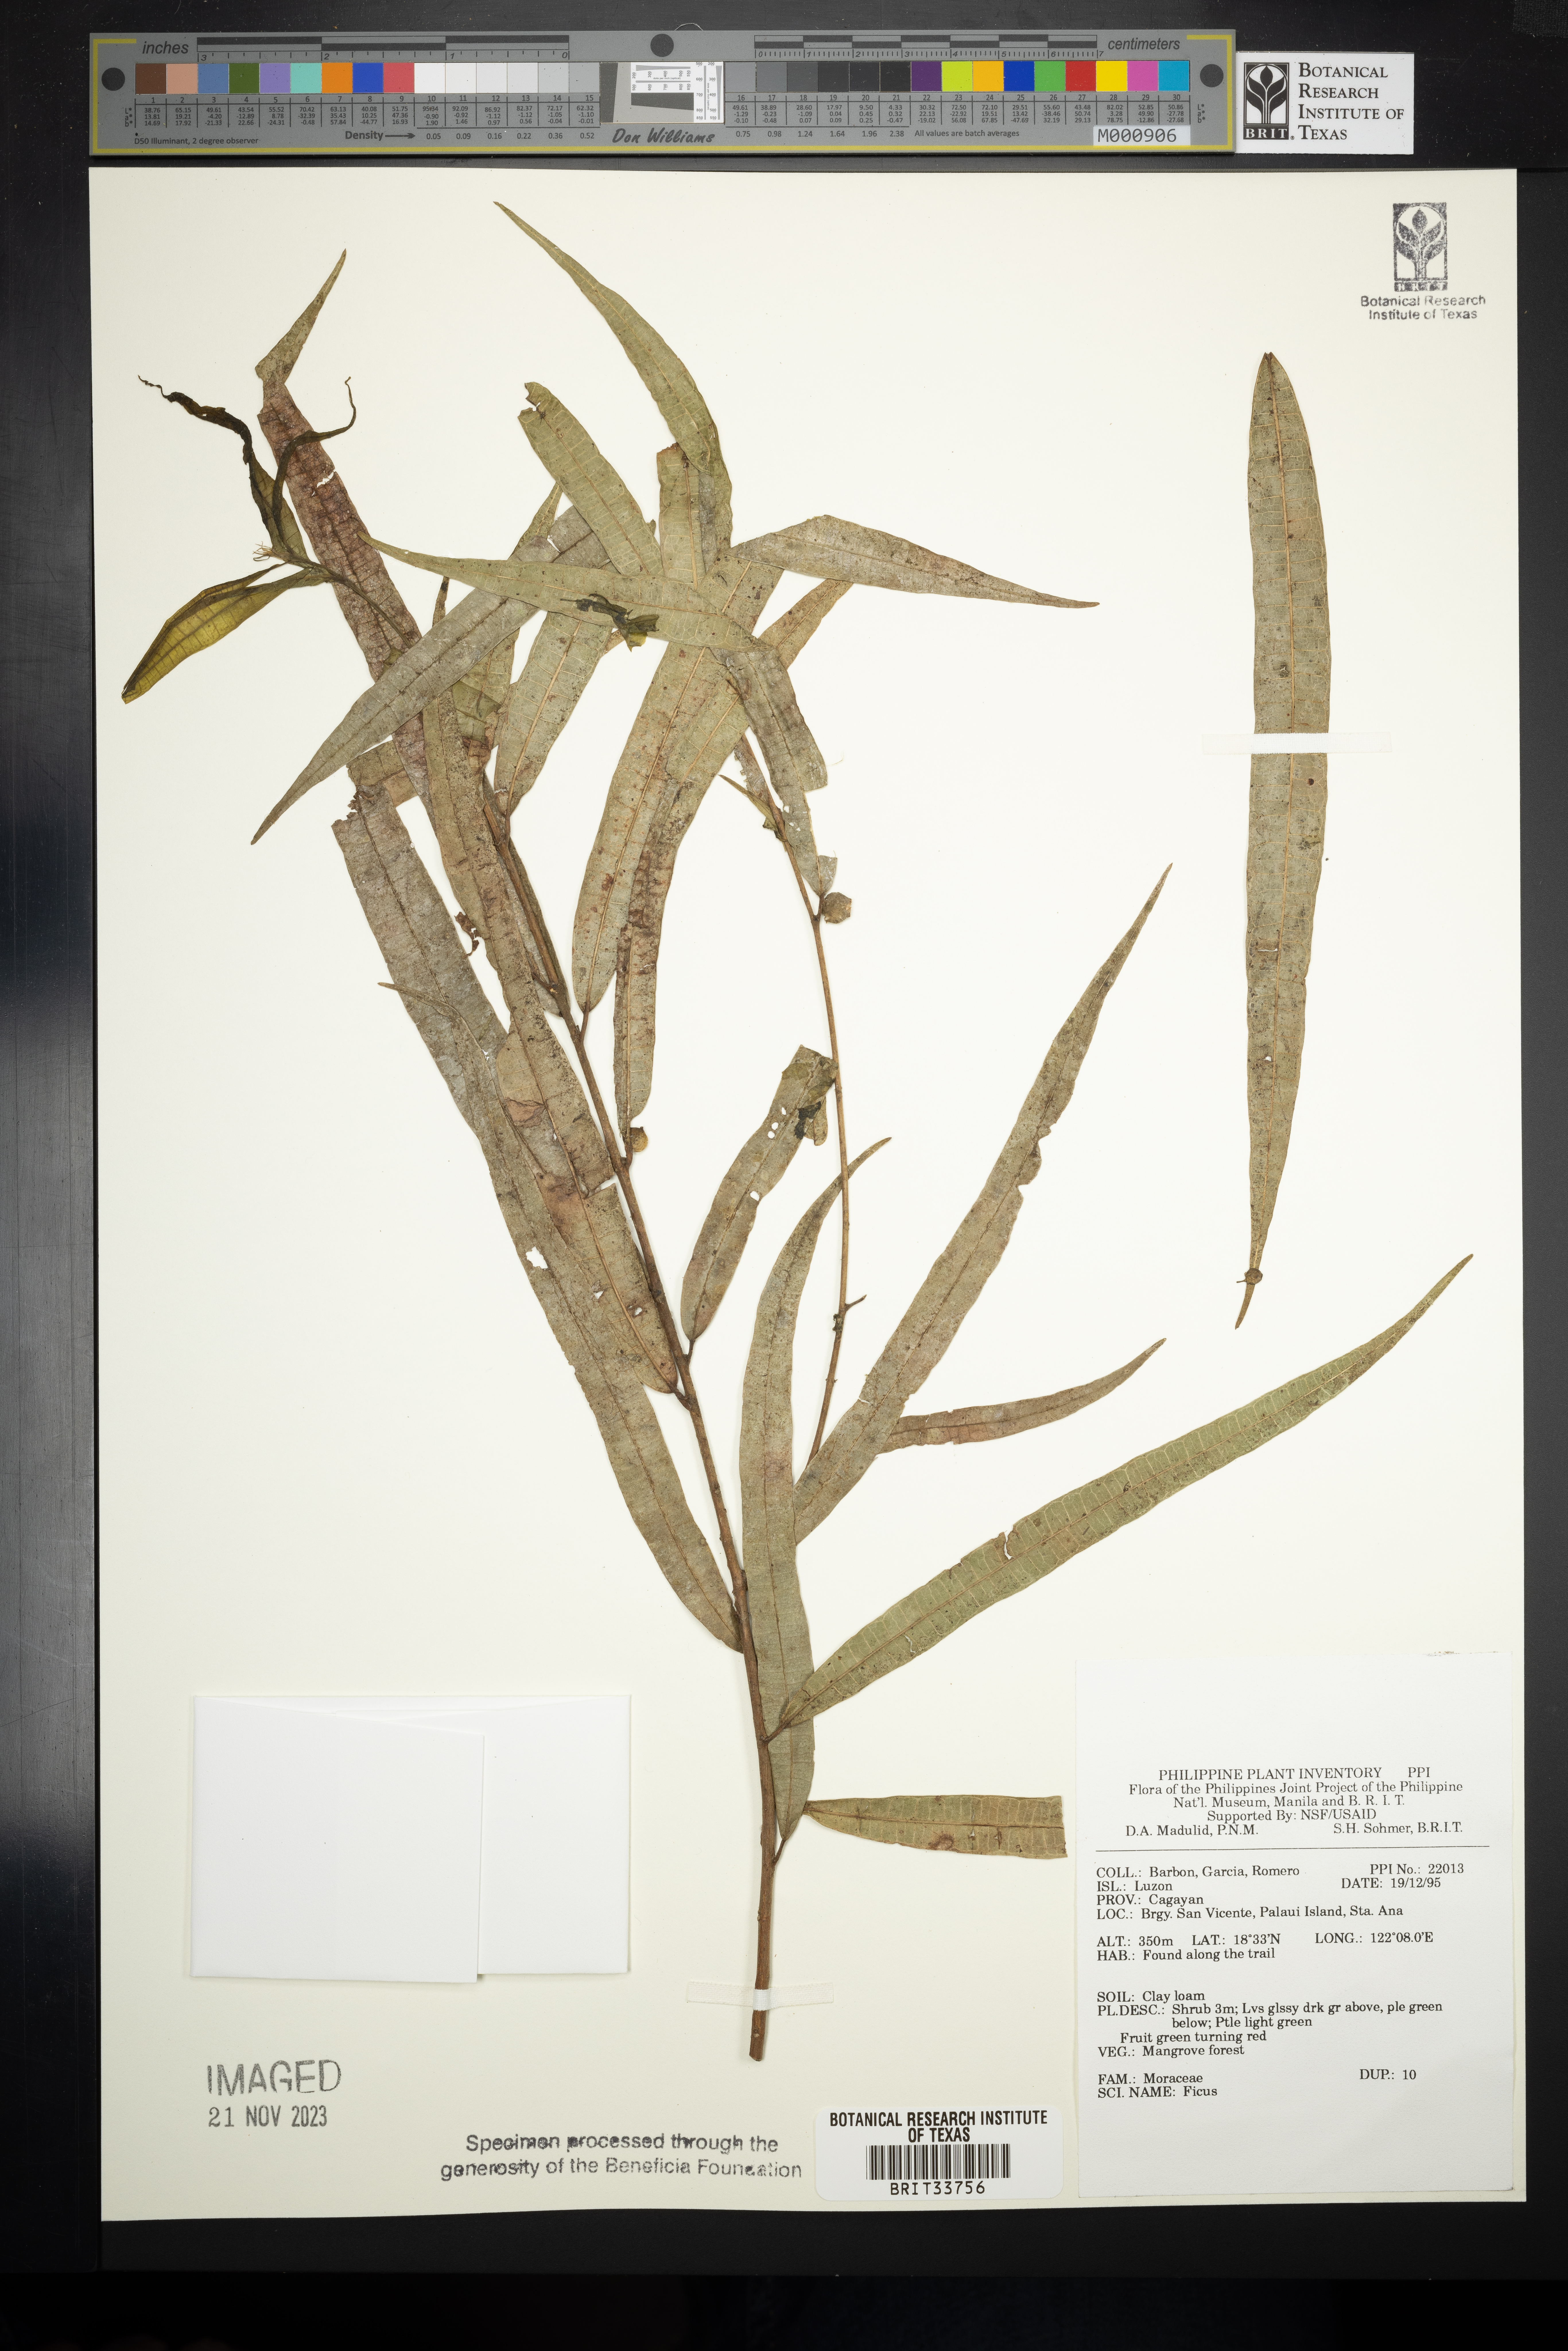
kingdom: Plantae
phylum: Tracheophyta
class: Magnoliopsida
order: Rosales
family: Moraceae
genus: Ficus
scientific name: Ficus
